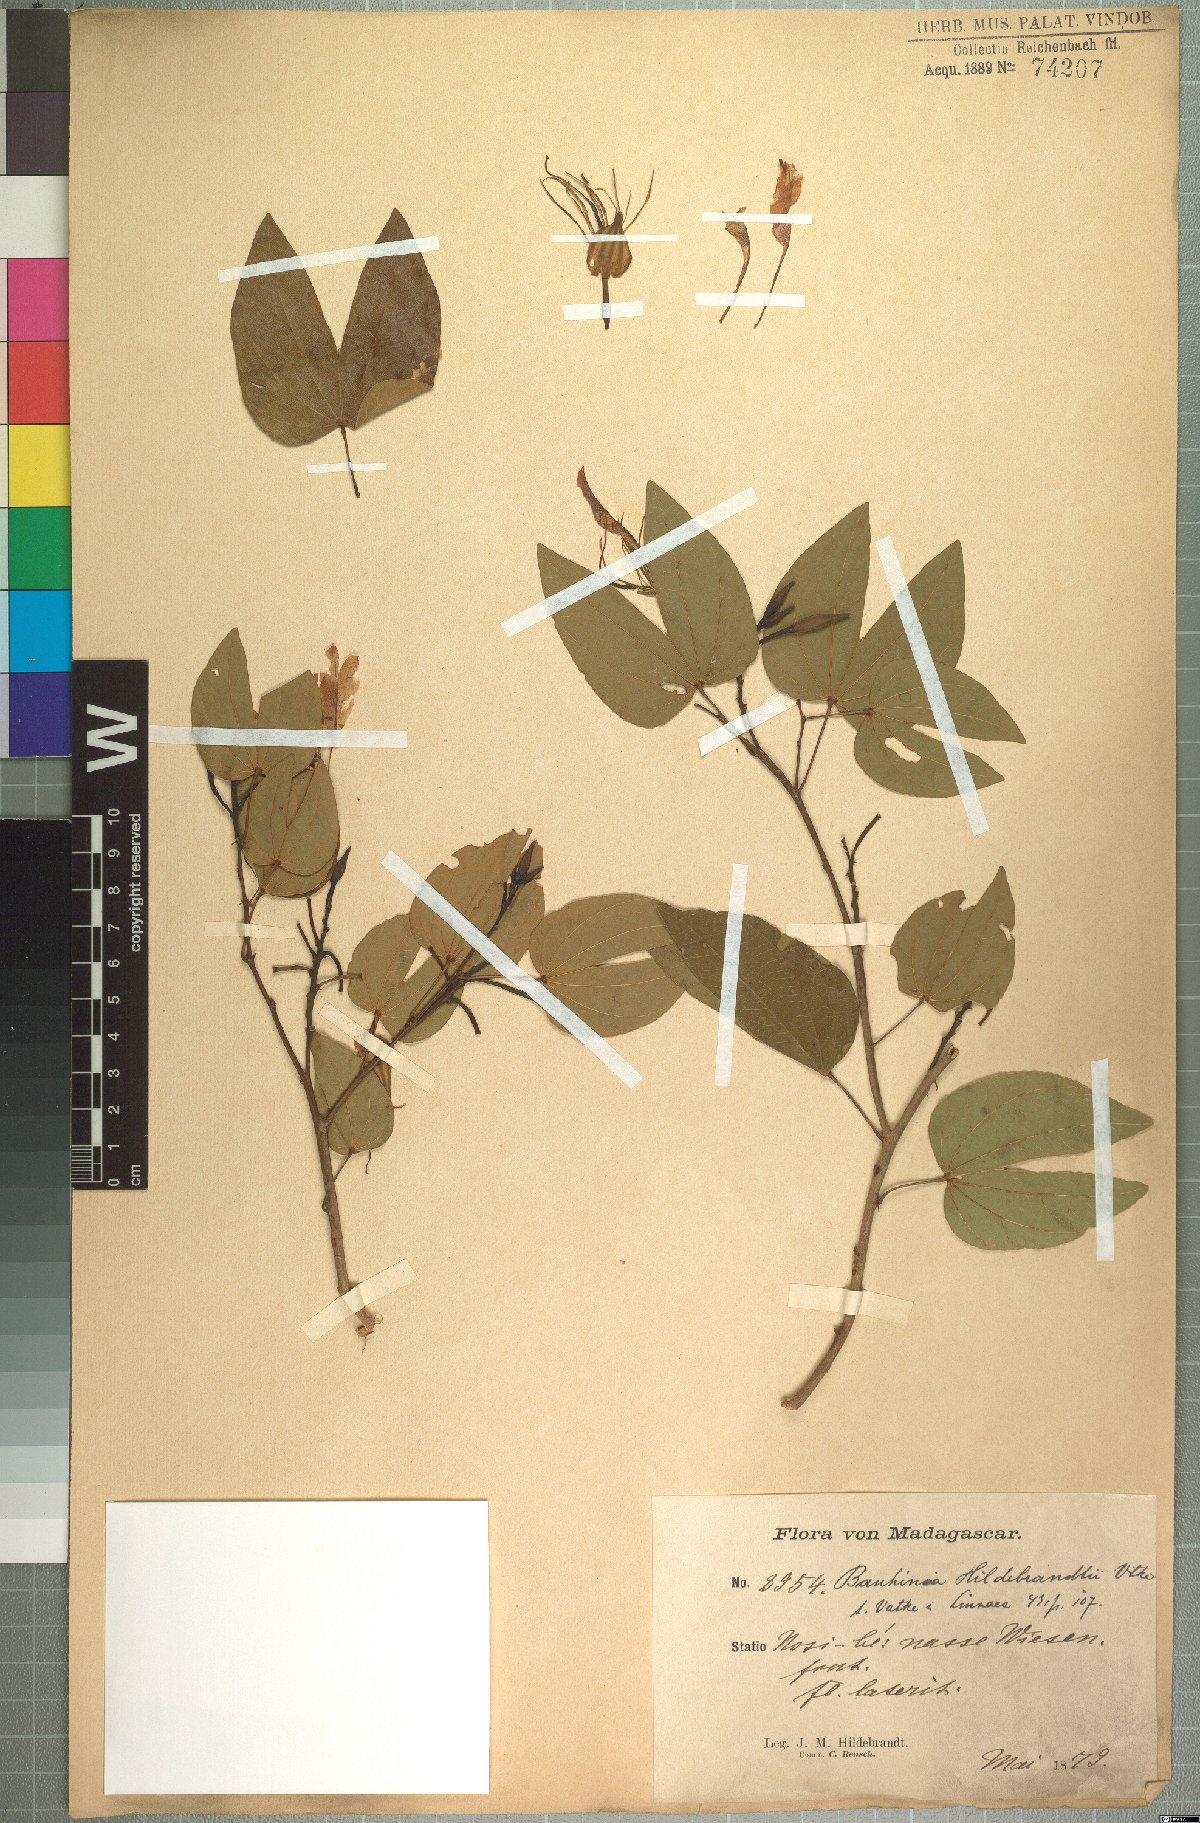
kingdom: Plantae
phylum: Tracheophyta
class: Magnoliopsida
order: Fabales
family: Fabaceae
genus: Bauhinia
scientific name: Bauhinia hildebrandtii
